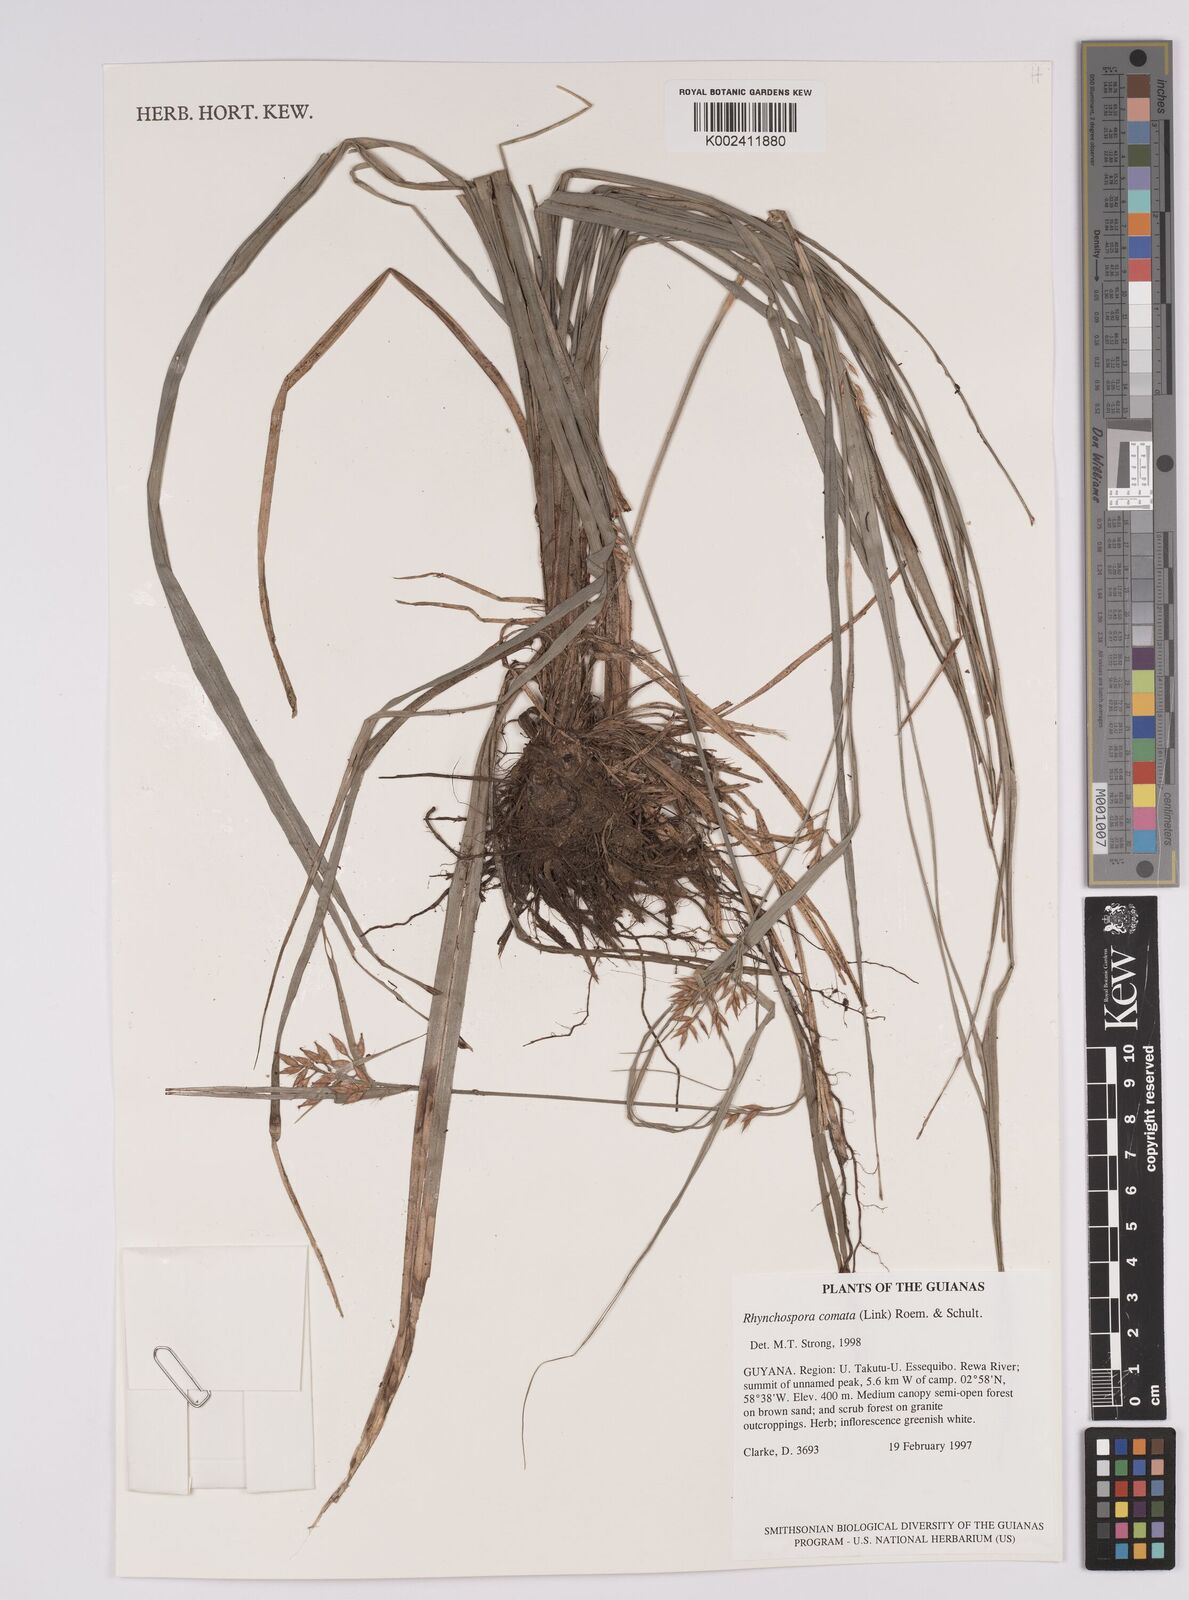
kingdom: Plantae
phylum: Tracheophyta
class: Liliopsida
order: Poales
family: Cyperaceae
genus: Rhynchospora
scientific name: Rhynchospora comata
